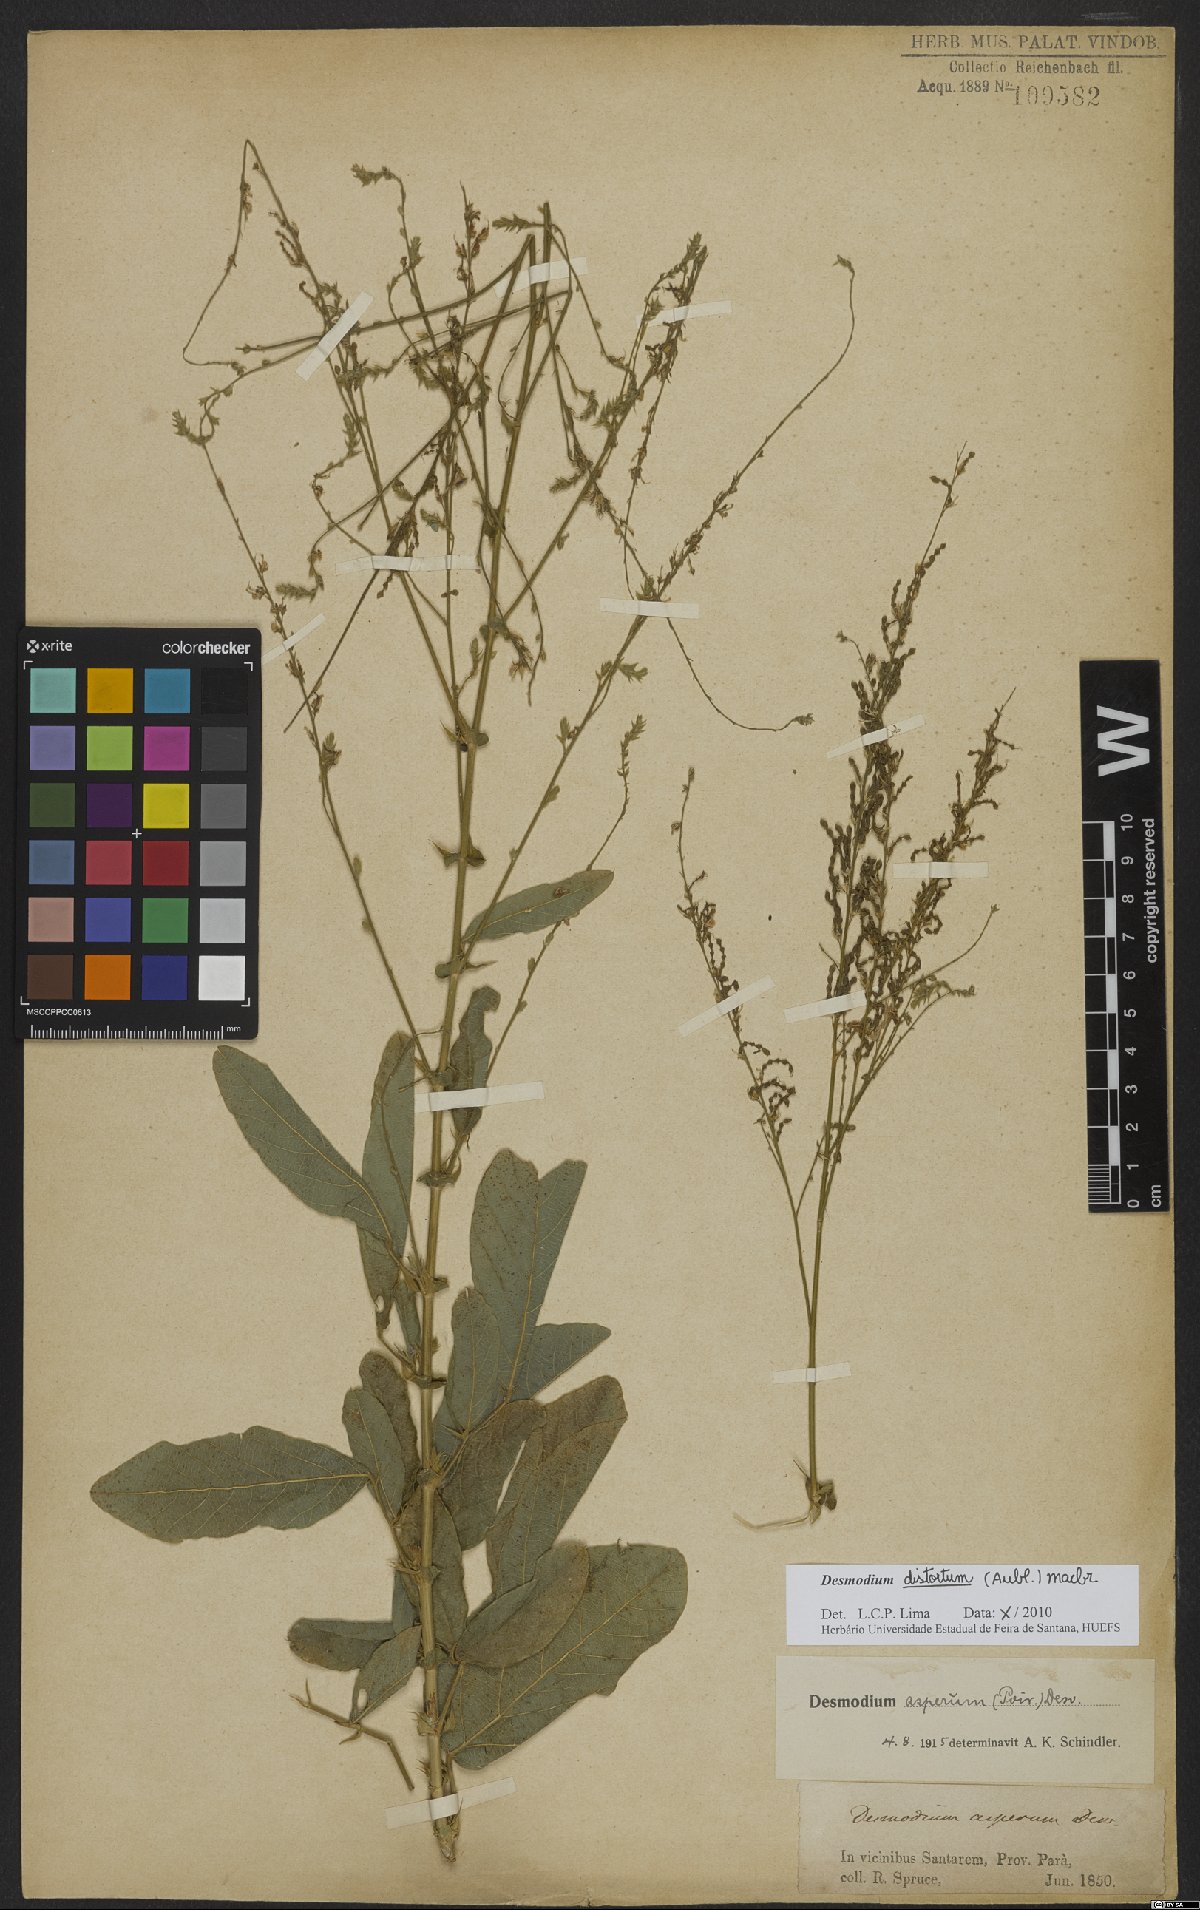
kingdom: Plantae
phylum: Tracheophyta
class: Magnoliopsida
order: Fabales
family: Fabaceae
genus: Desmodium
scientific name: Desmodium distortum
